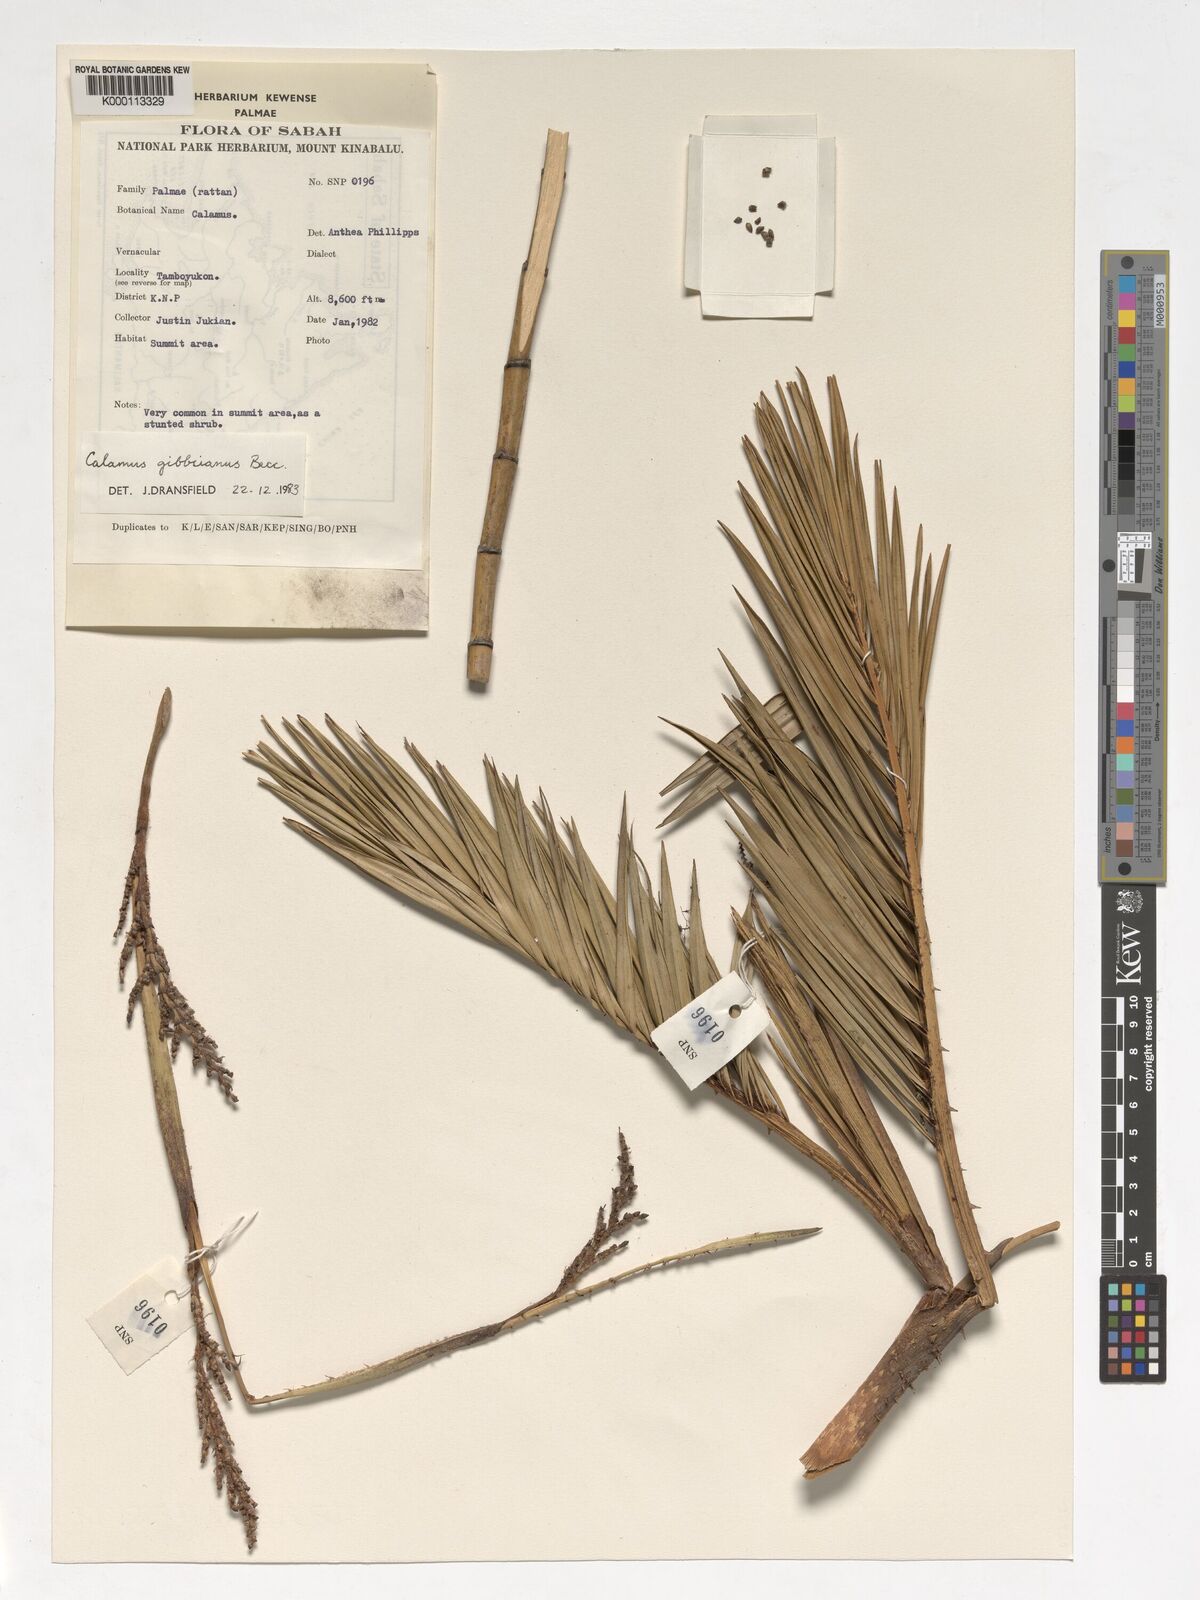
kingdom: Plantae
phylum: Tracheophyta
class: Liliopsida
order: Arecales
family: Arecaceae
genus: Calamus
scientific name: Calamus gibbsianus
